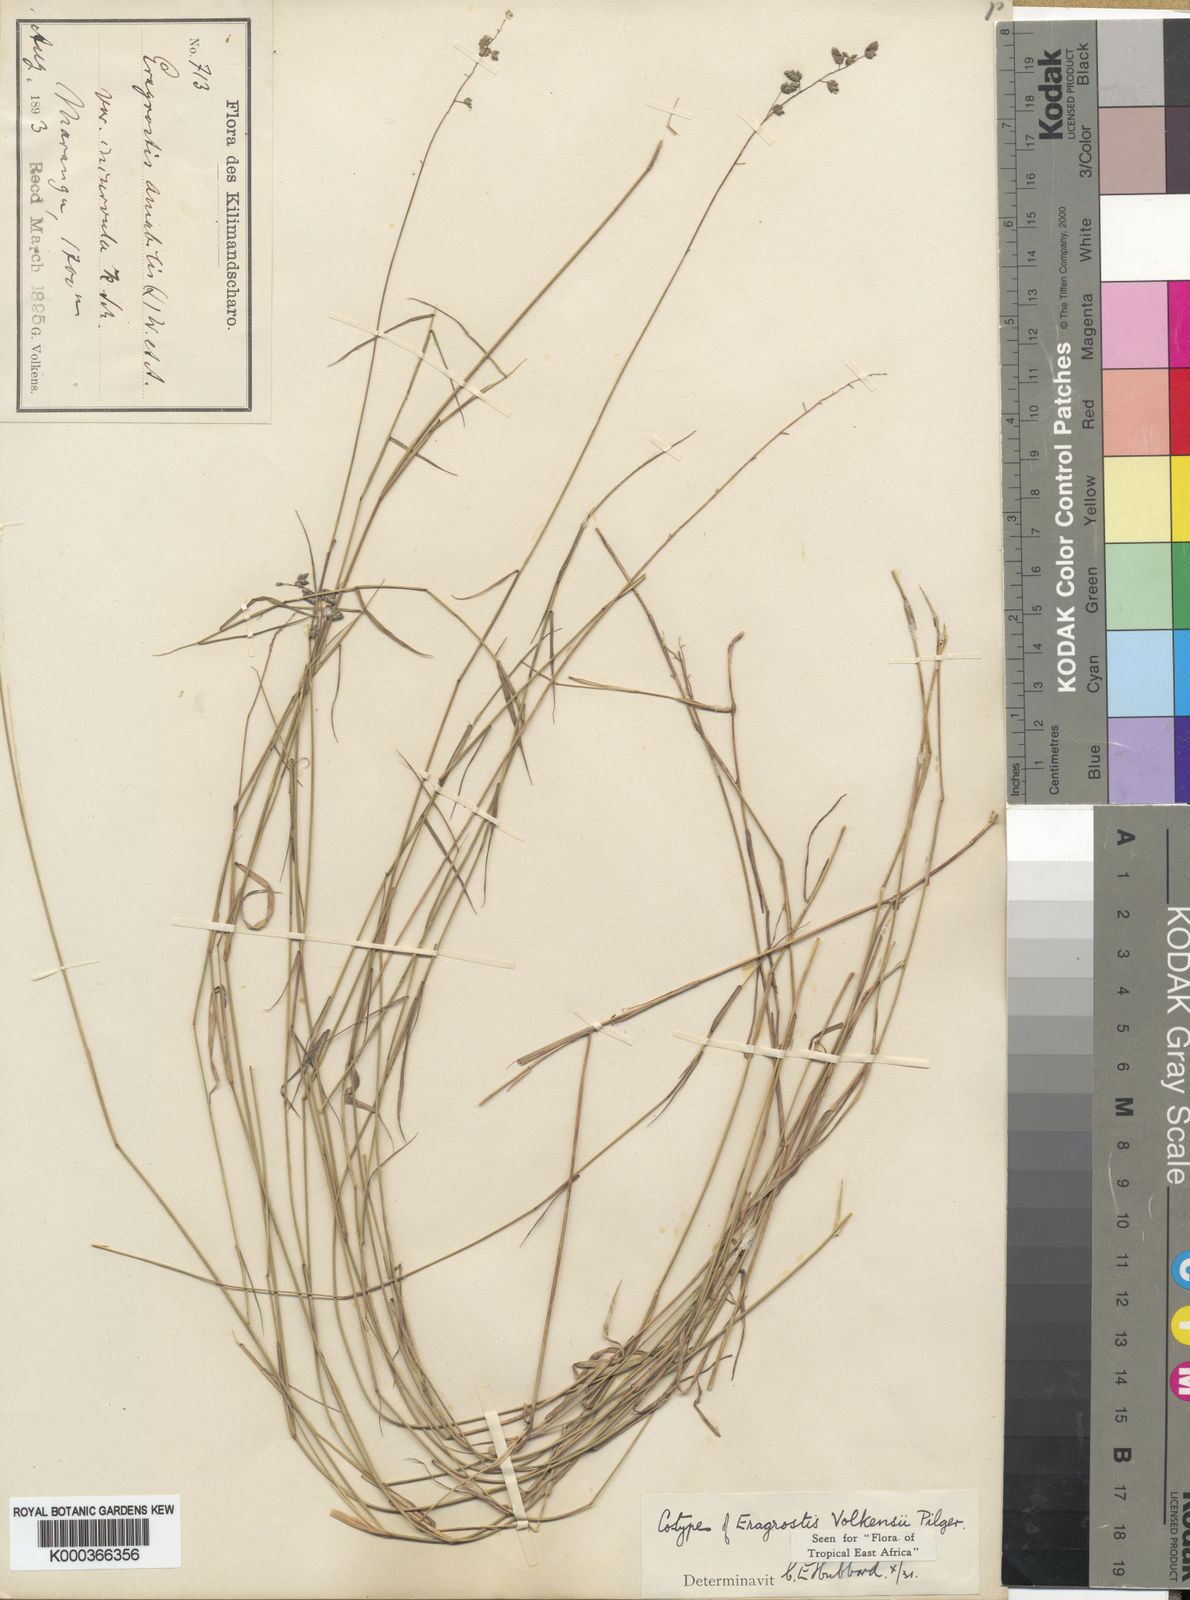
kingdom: Plantae
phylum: Tracheophyta
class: Liliopsida
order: Poales
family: Poaceae
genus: Eragrostis
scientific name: Eragrostis volkensii
